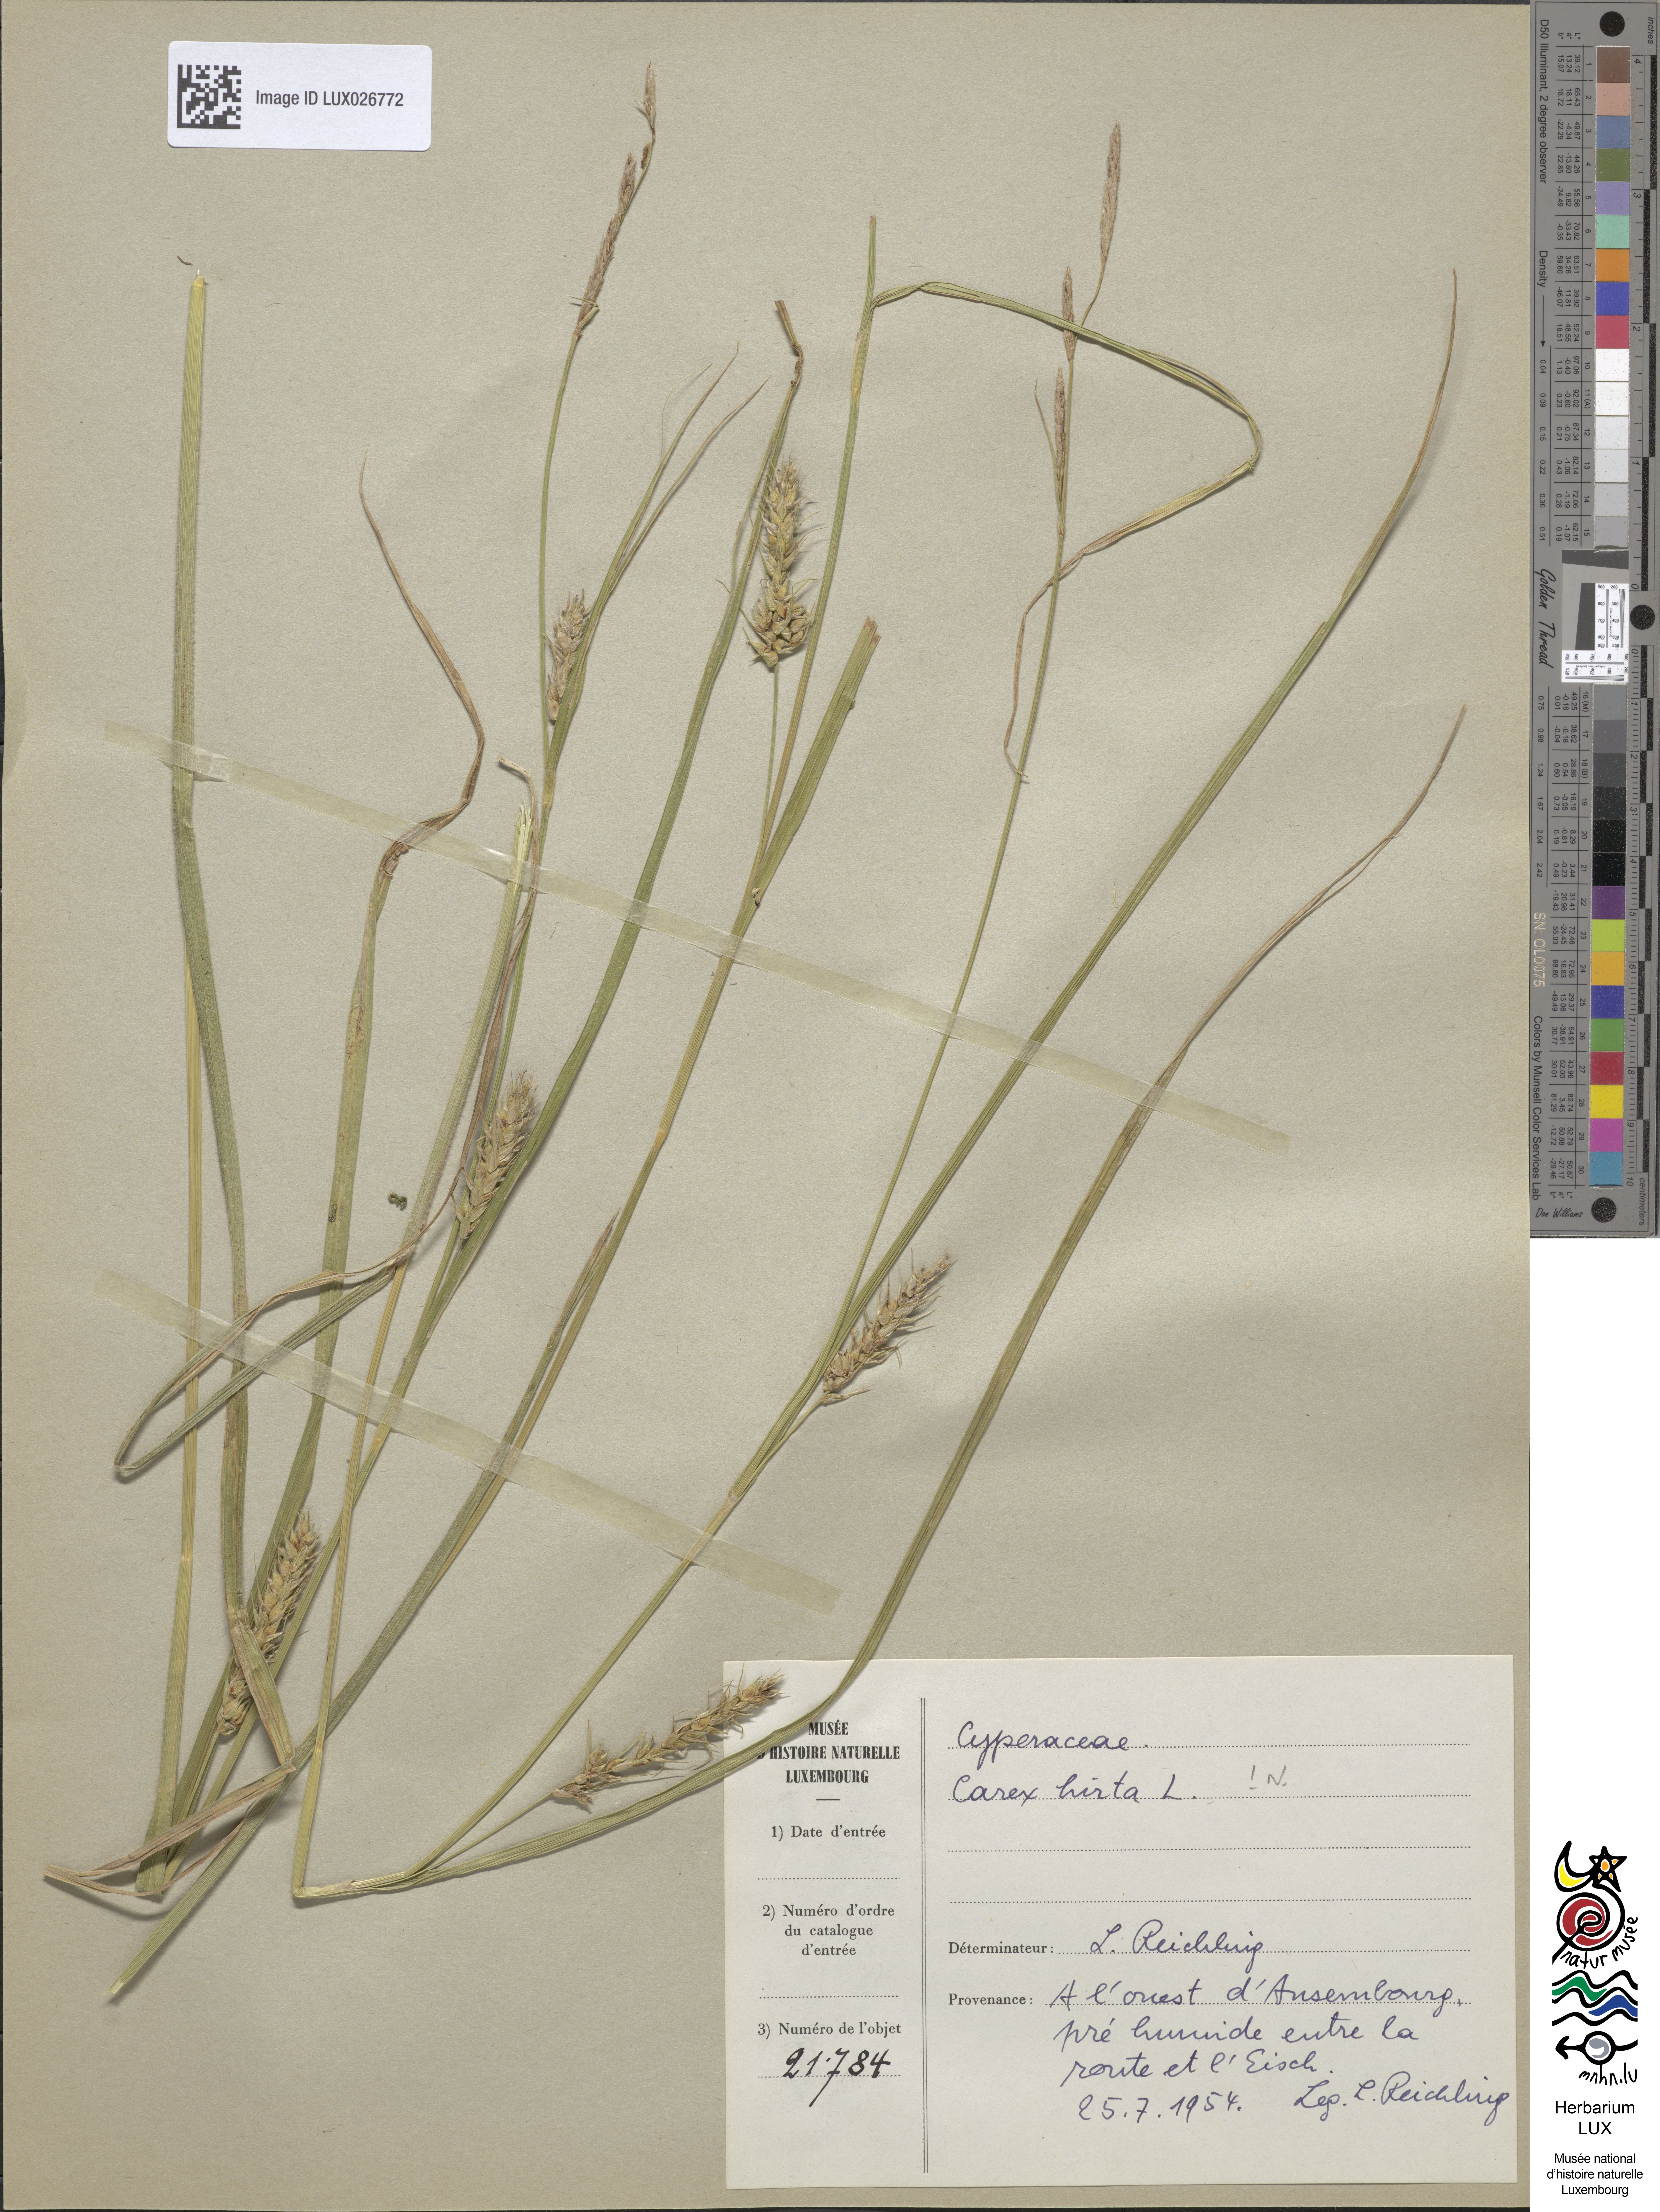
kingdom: Plantae
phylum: Tracheophyta
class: Liliopsida
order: Poales
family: Cyperaceae
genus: Carex
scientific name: Carex hirta
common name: Hairy sedge
